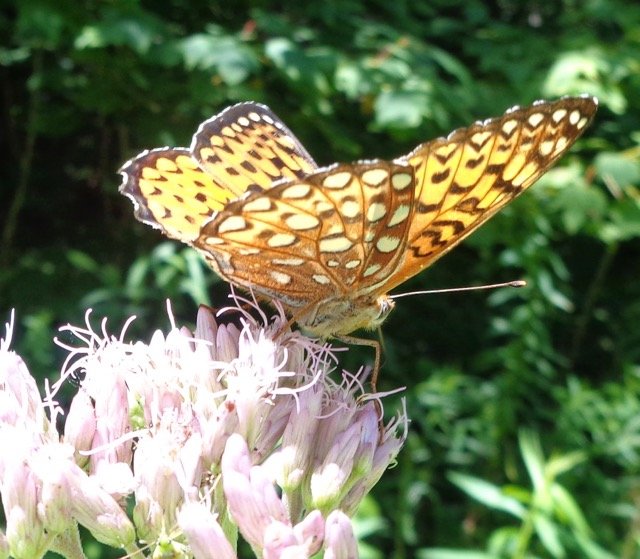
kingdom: Animalia
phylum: Arthropoda
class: Insecta
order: Lepidoptera
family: Nymphalidae
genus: Speyeria
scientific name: Speyeria atlantis
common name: Atlantis Fritillary
